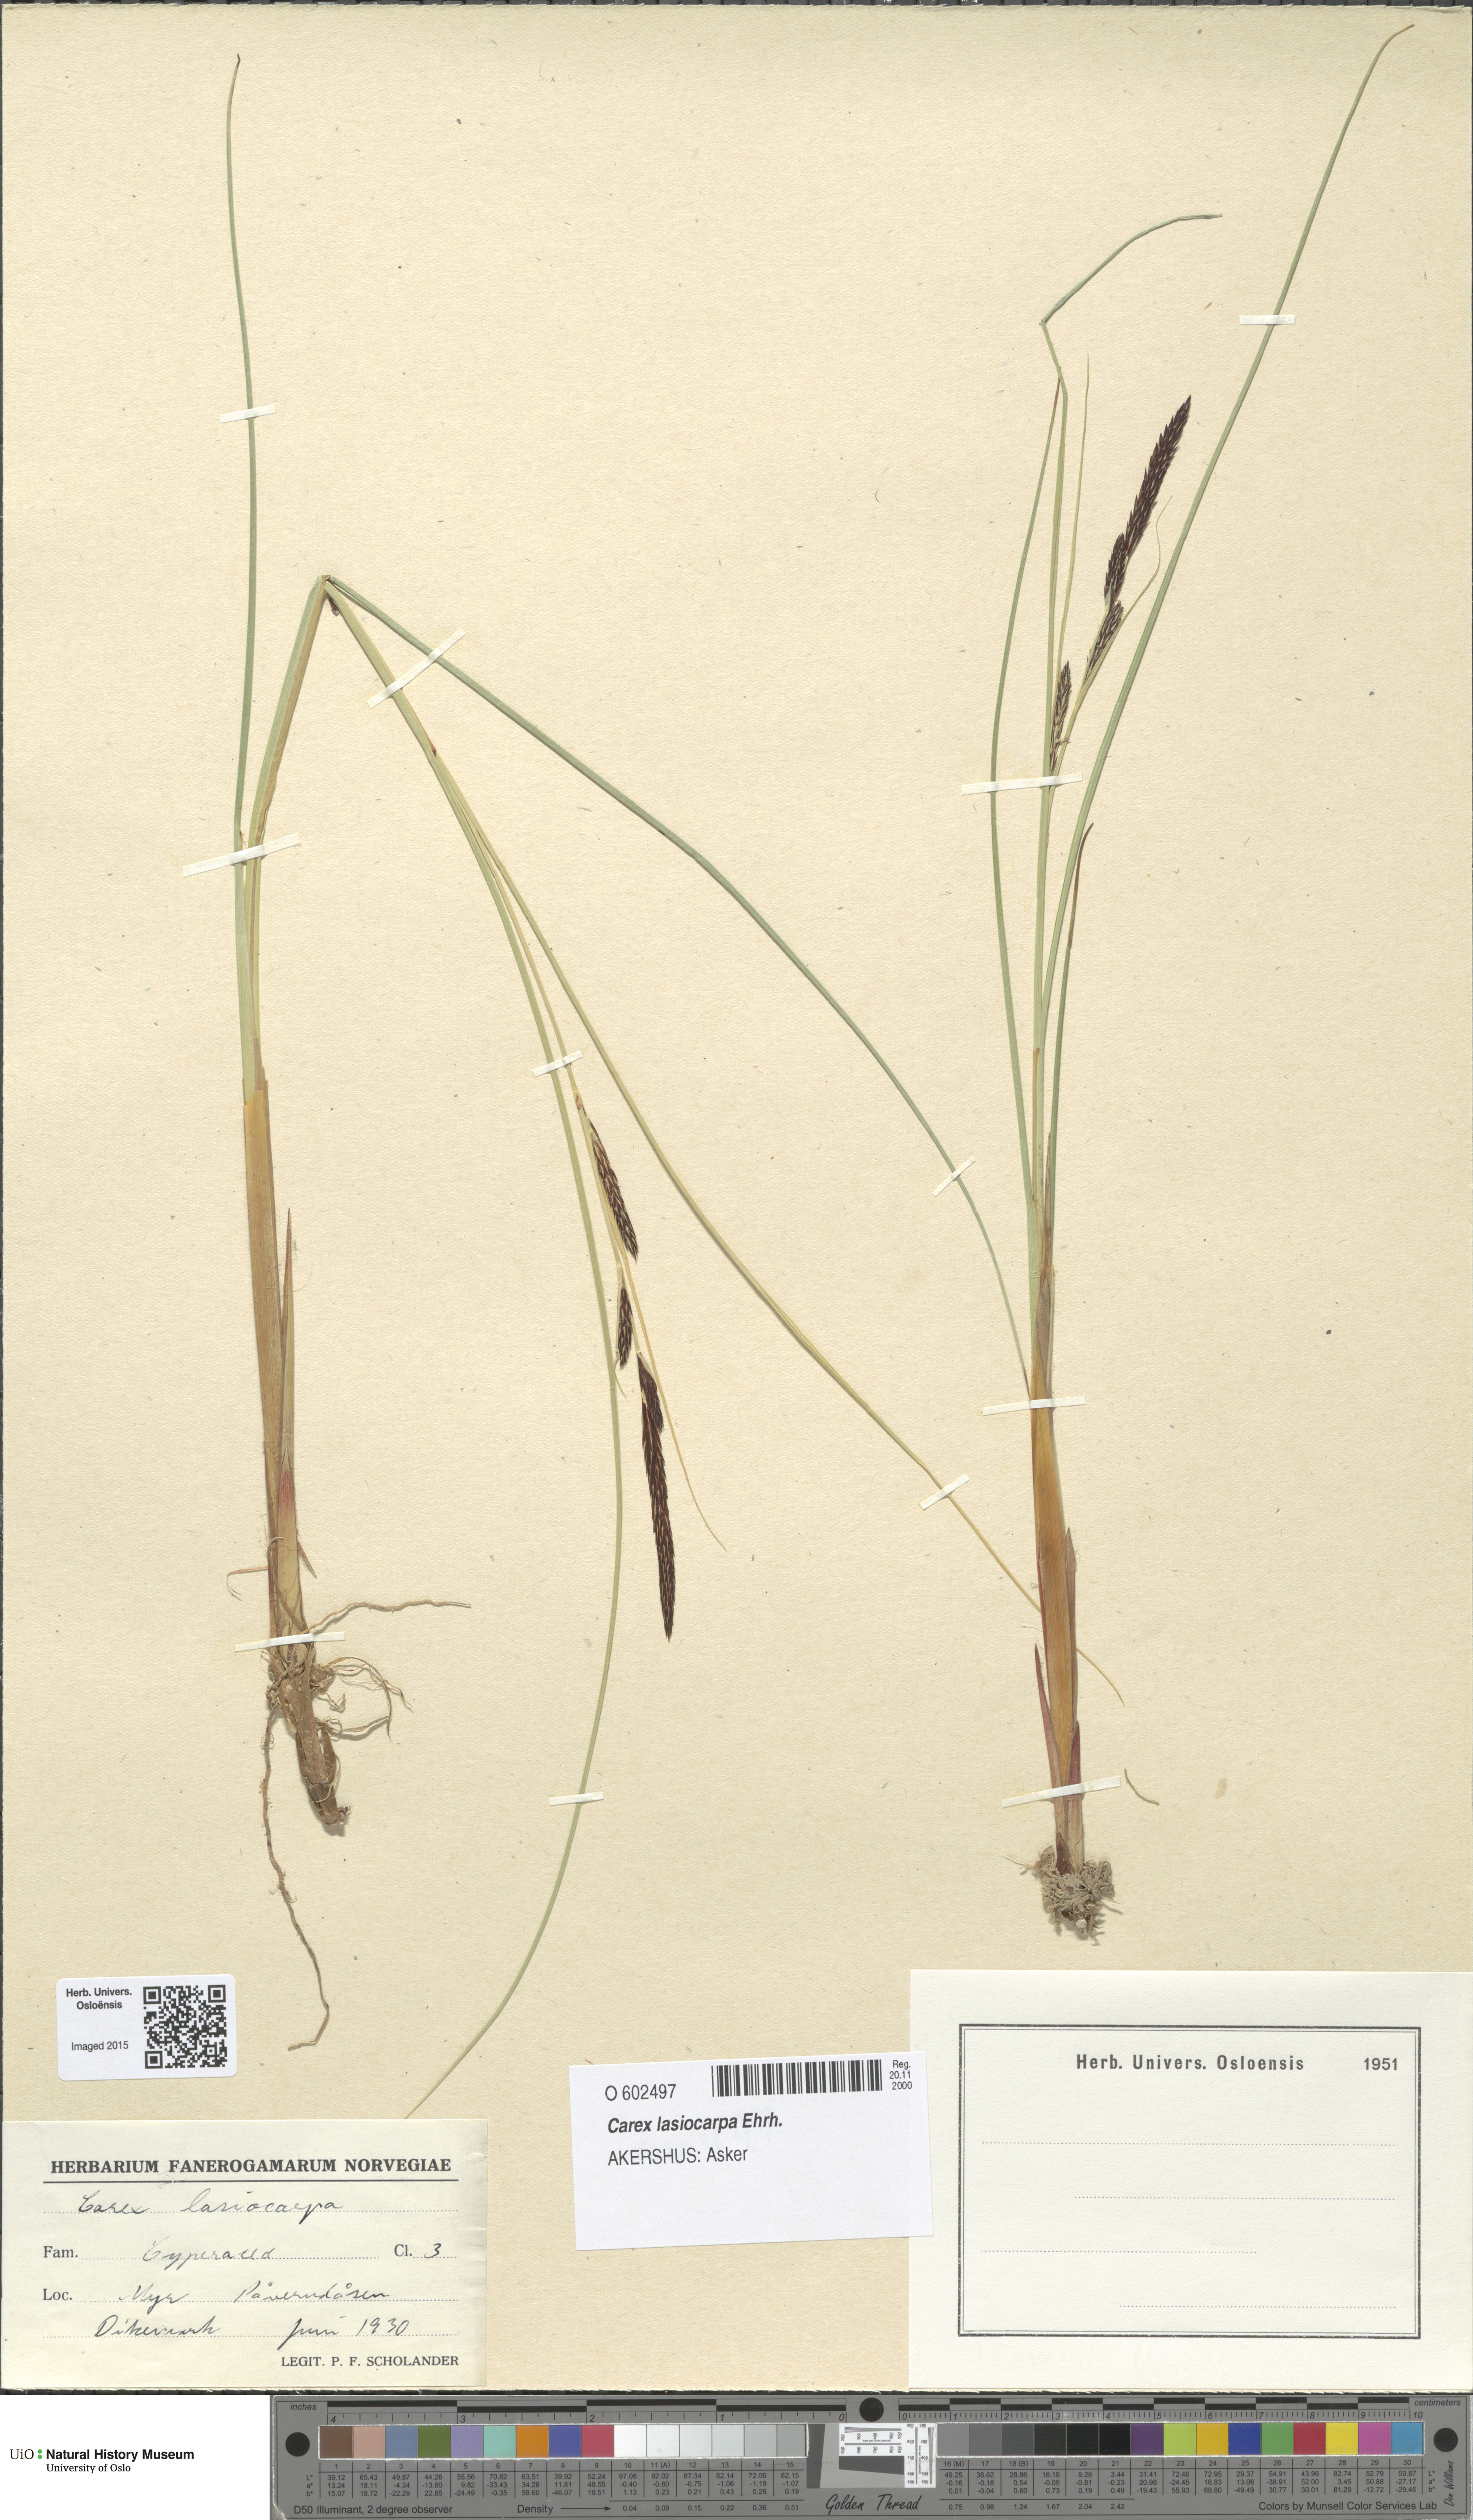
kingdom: Plantae
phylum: Tracheophyta
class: Liliopsida
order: Poales
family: Cyperaceae
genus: Carex
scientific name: Carex lasiocarpa
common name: Slender sedge
